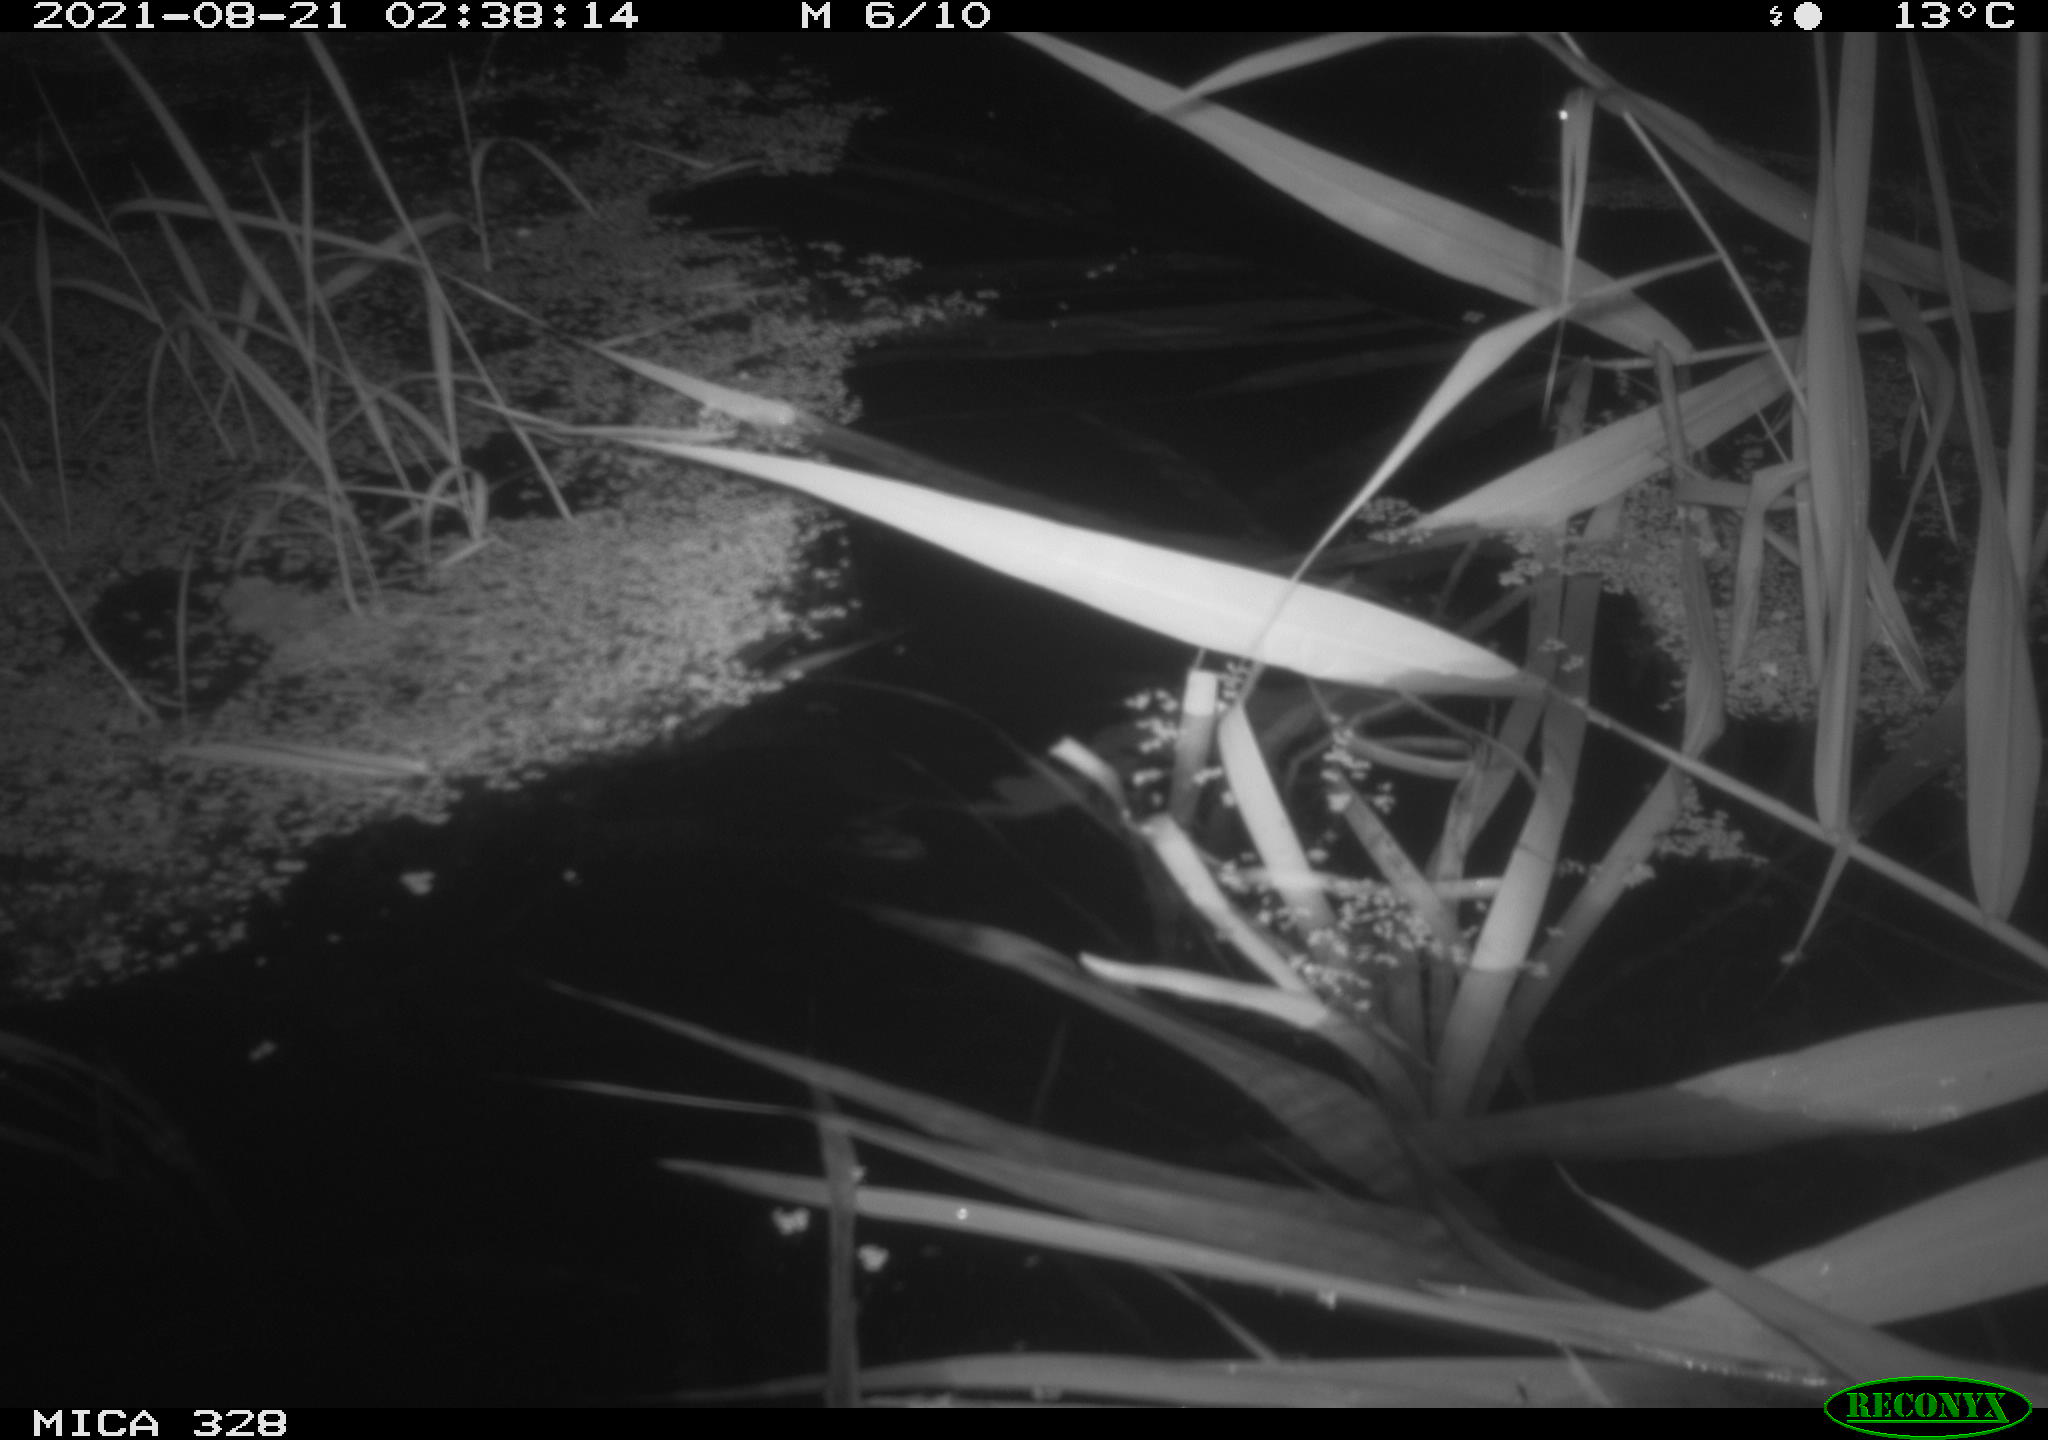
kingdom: Animalia
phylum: Chordata
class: Mammalia
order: Rodentia
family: Cricetidae
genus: Ondatra
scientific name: Ondatra zibethicus
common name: Muskrat
